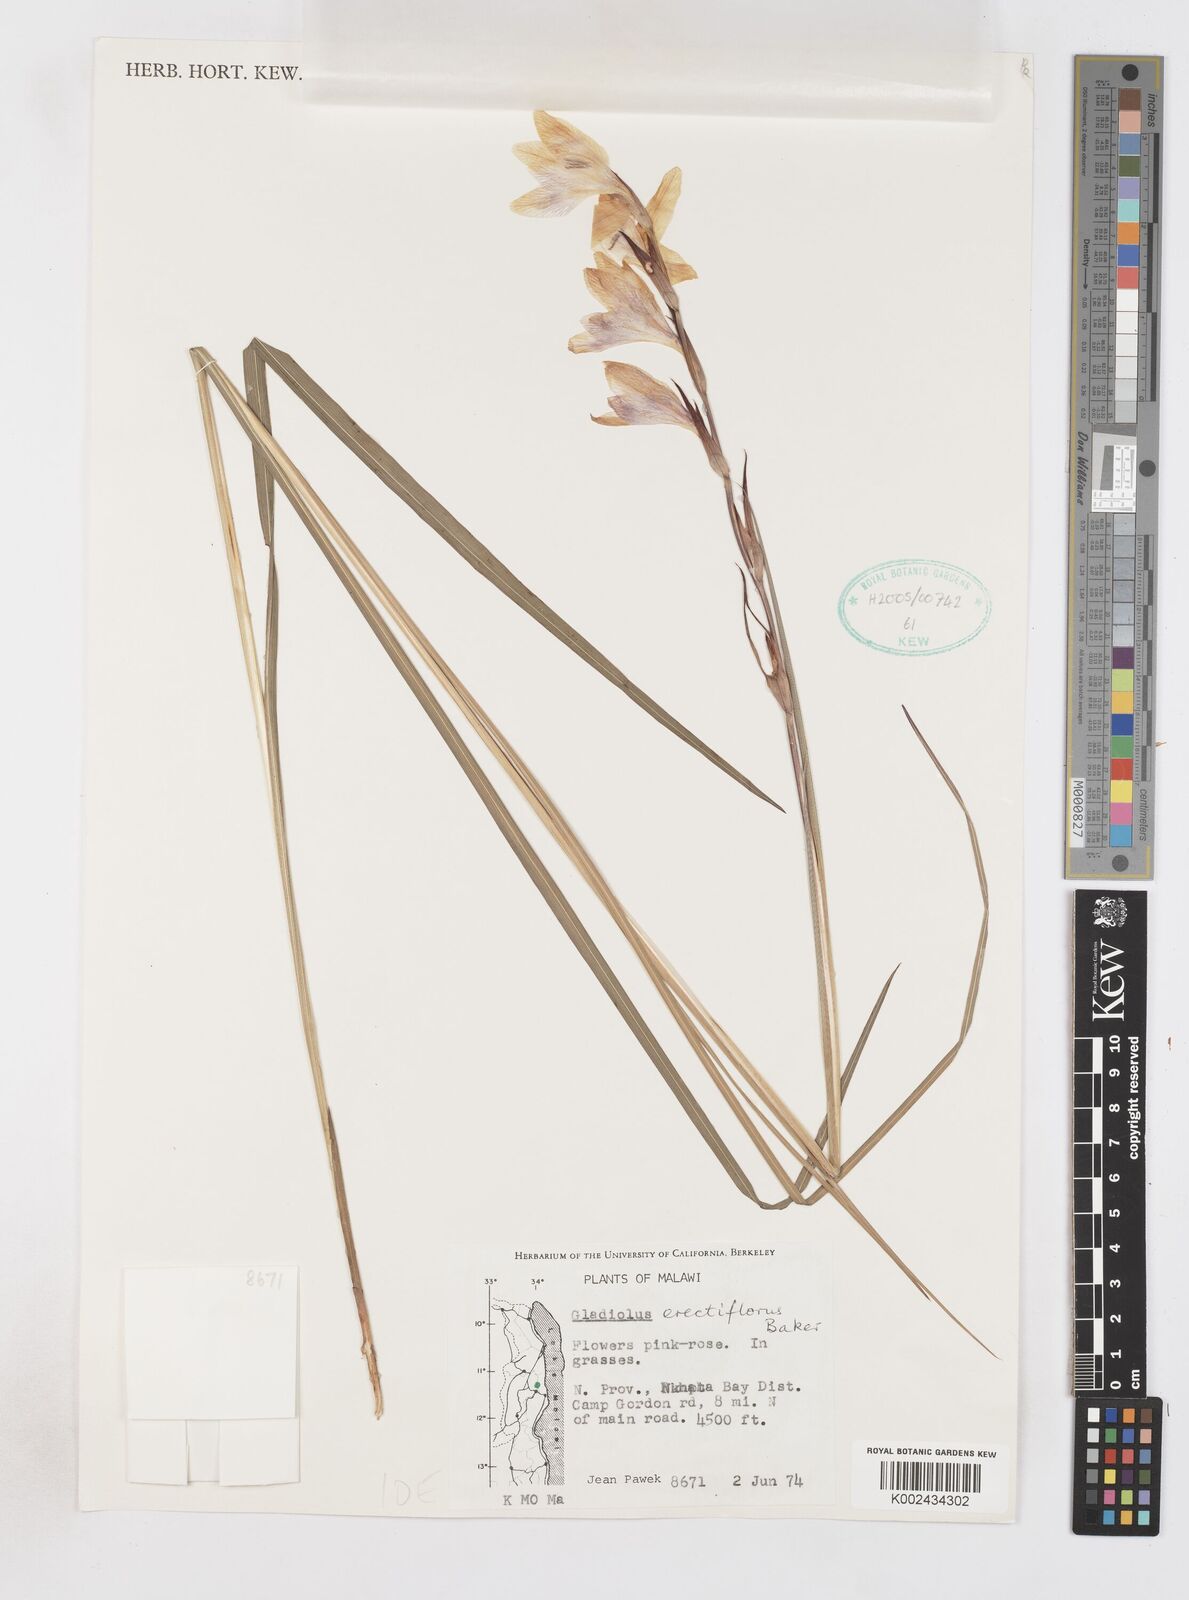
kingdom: Plantae
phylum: Tracheophyta
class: Liliopsida
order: Asparagales
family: Iridaceae
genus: Gladiolus
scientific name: Gladiolus erectiflorus
